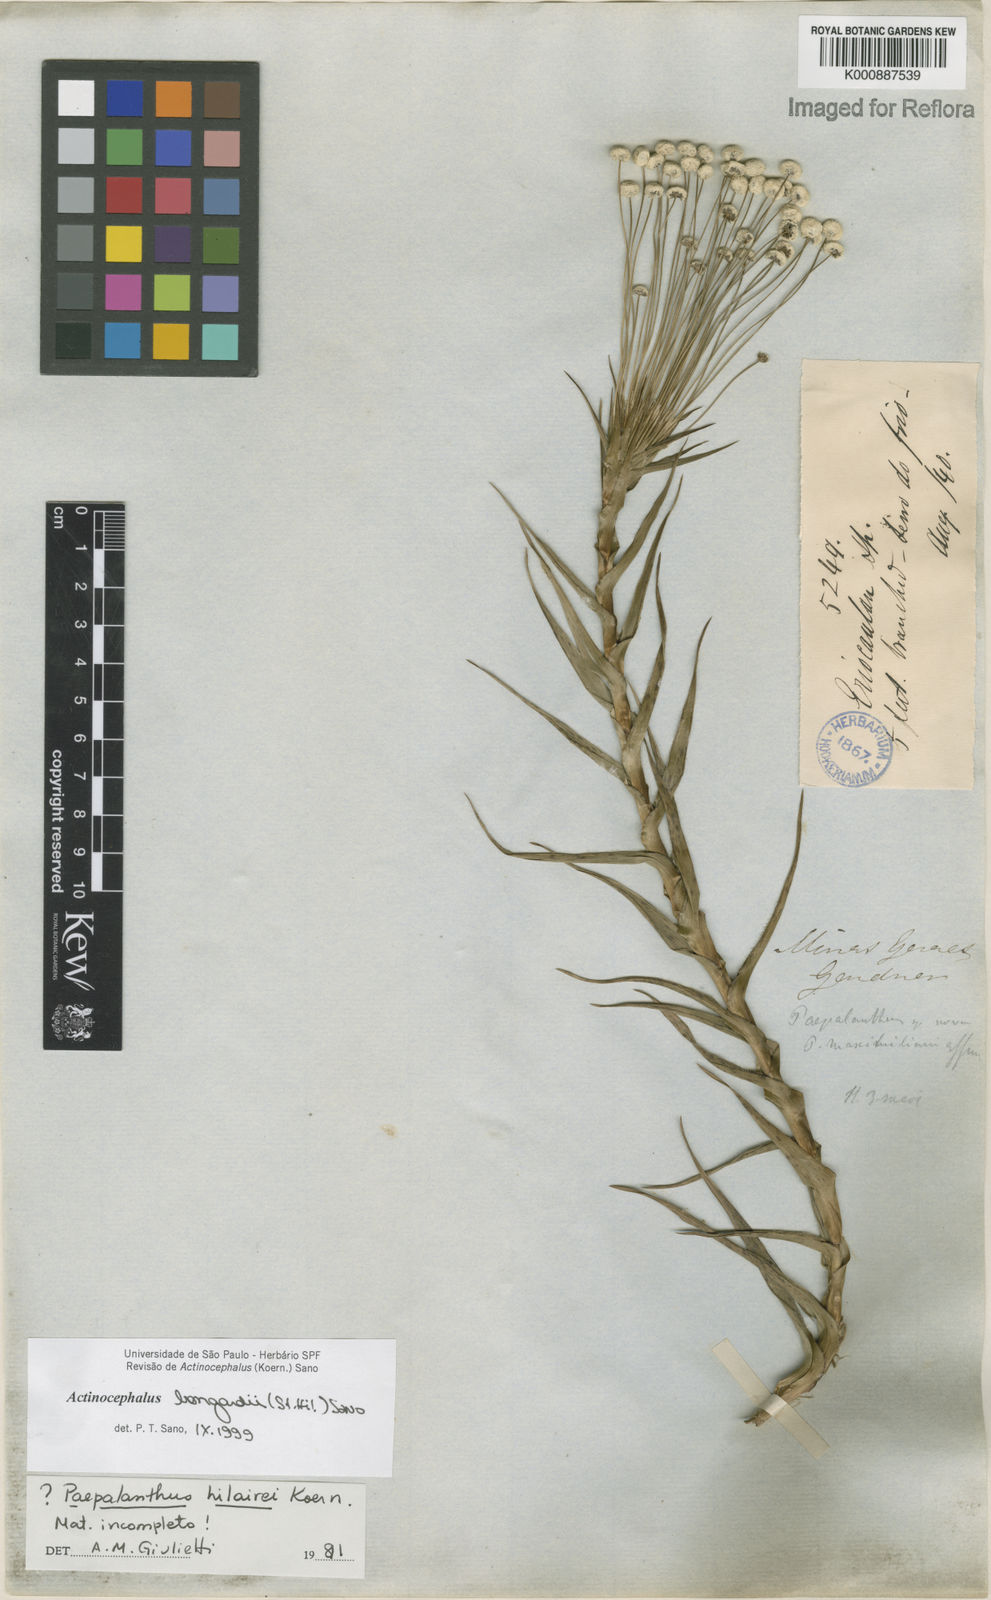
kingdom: Plantae
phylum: Tracheophyta
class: Liliopsida
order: Poales
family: Eriocaulaceae
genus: Paepalanthus
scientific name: Paepalanthus hilairei
